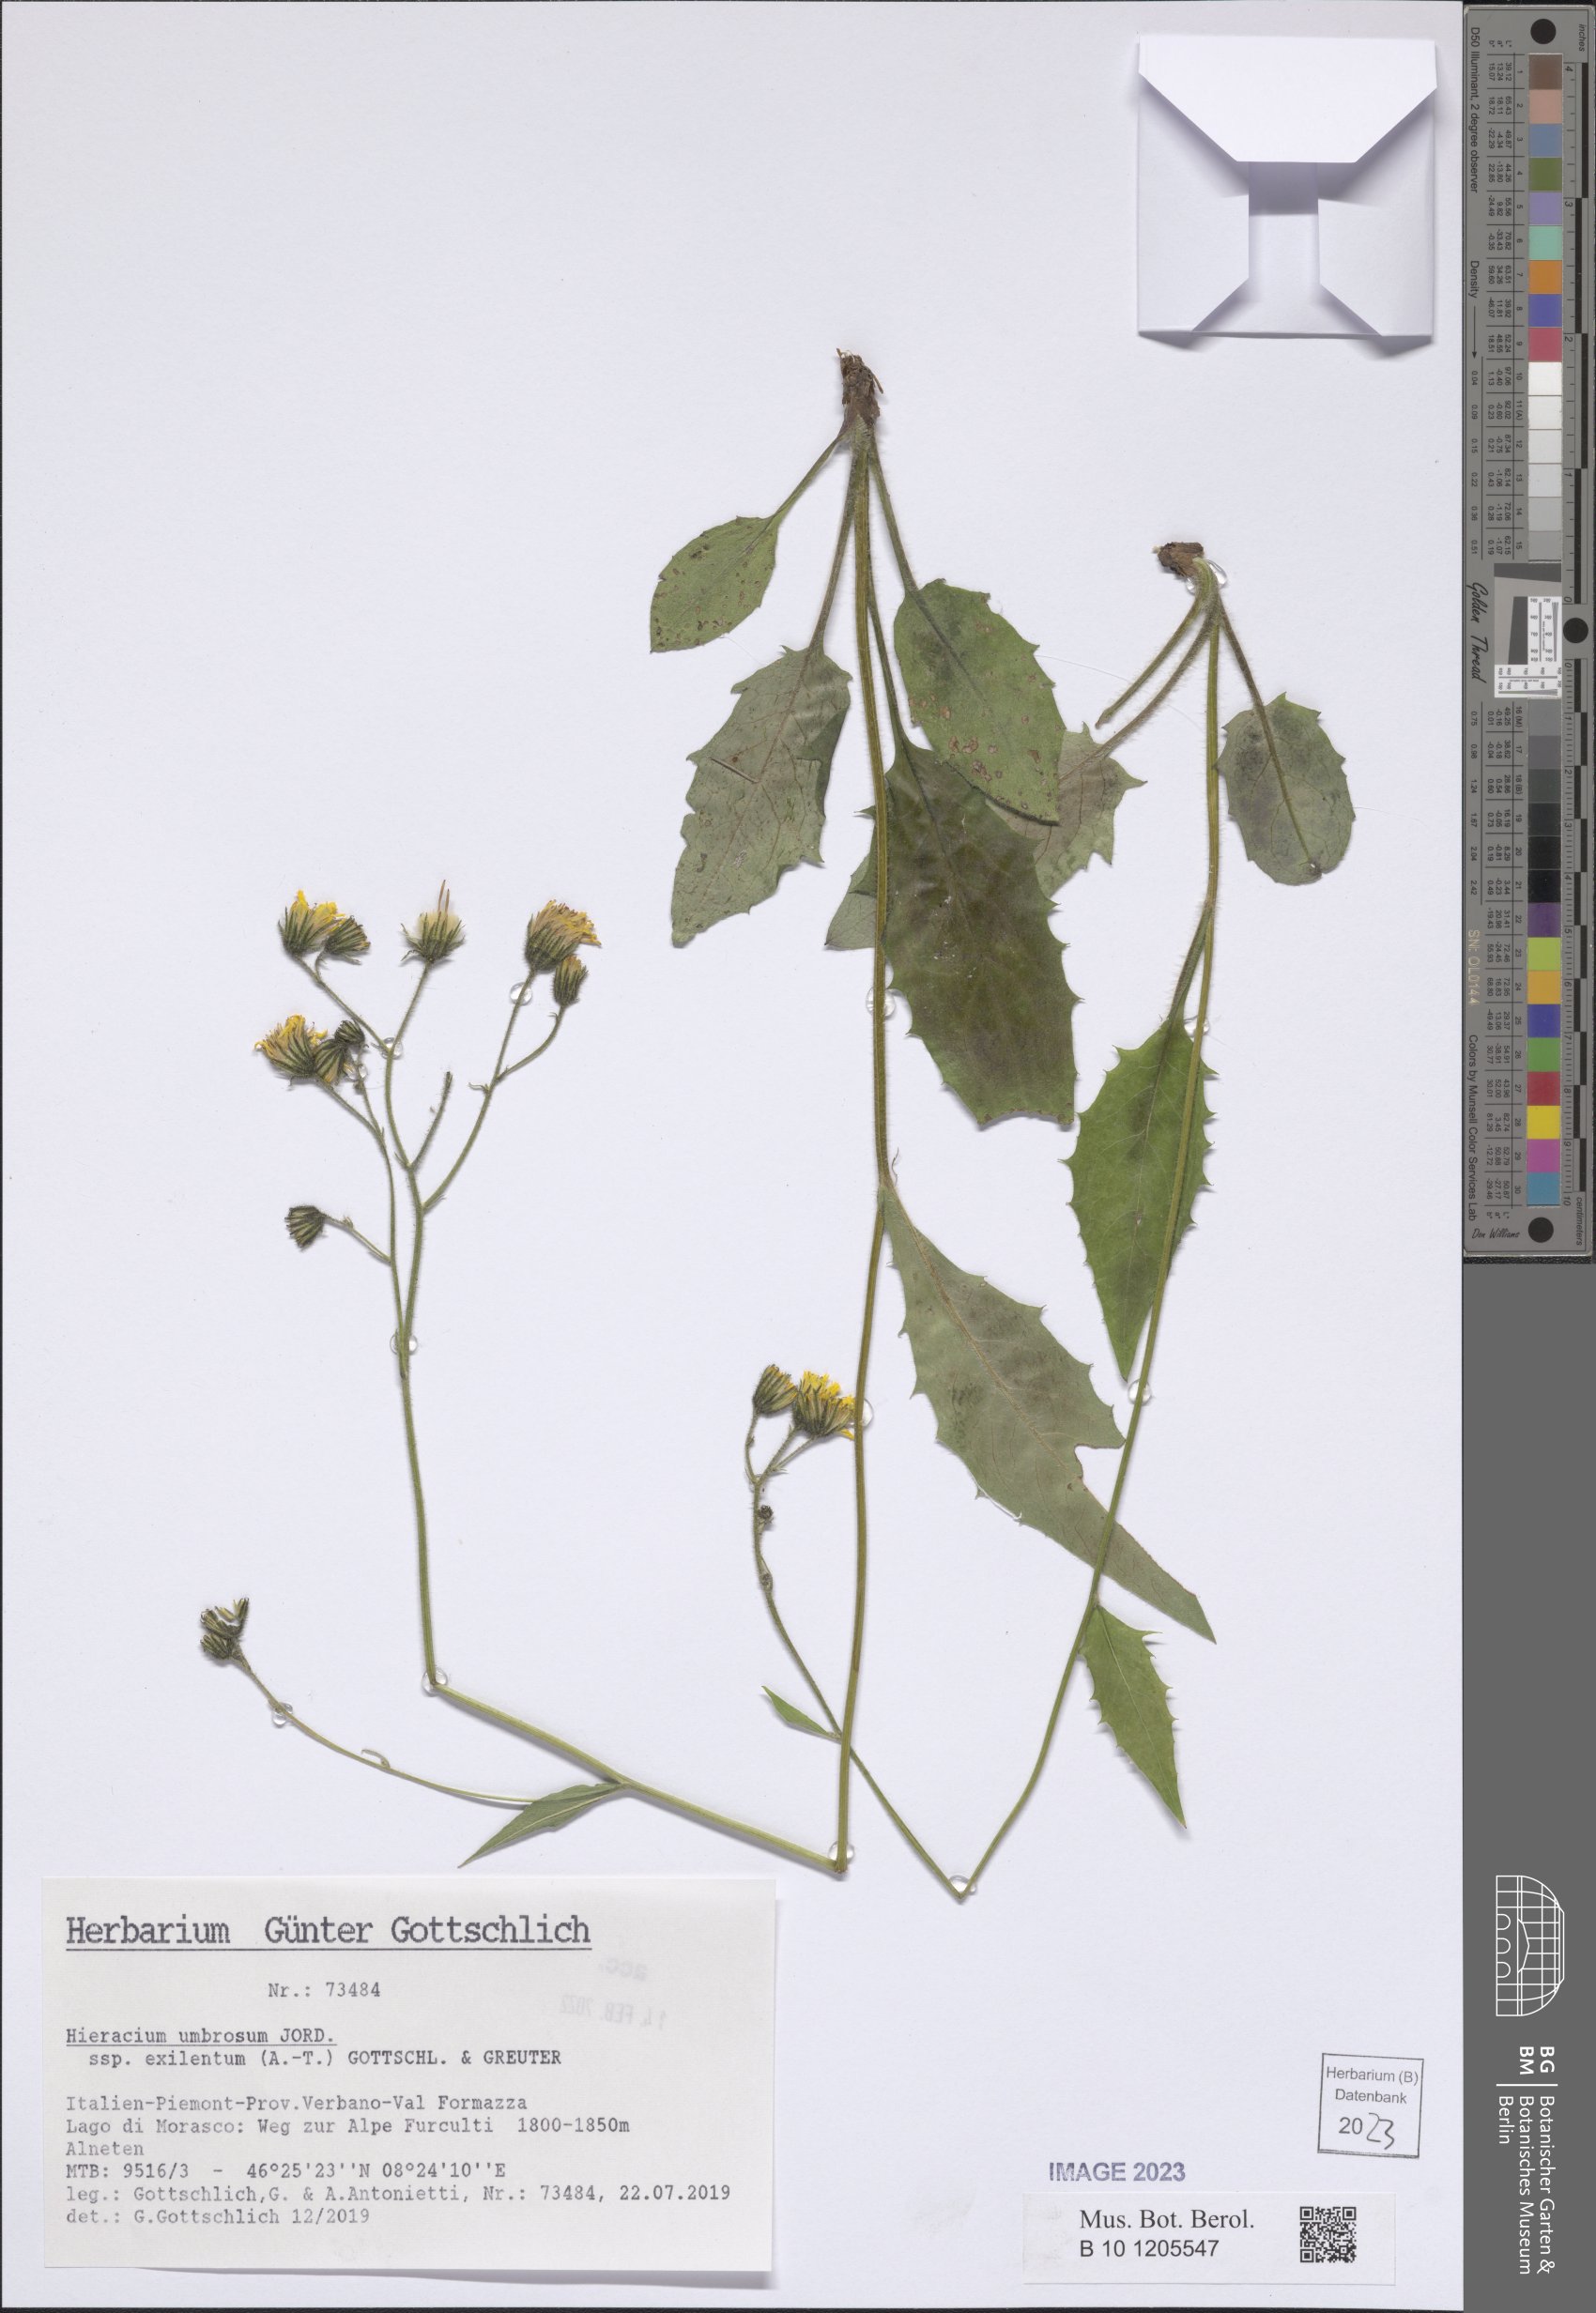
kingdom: Plantae
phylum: Tracheophyta
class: Magnoliopsida
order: Asterales
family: Asteraceae
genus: Hieracium
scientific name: Hieracium umbrosum
